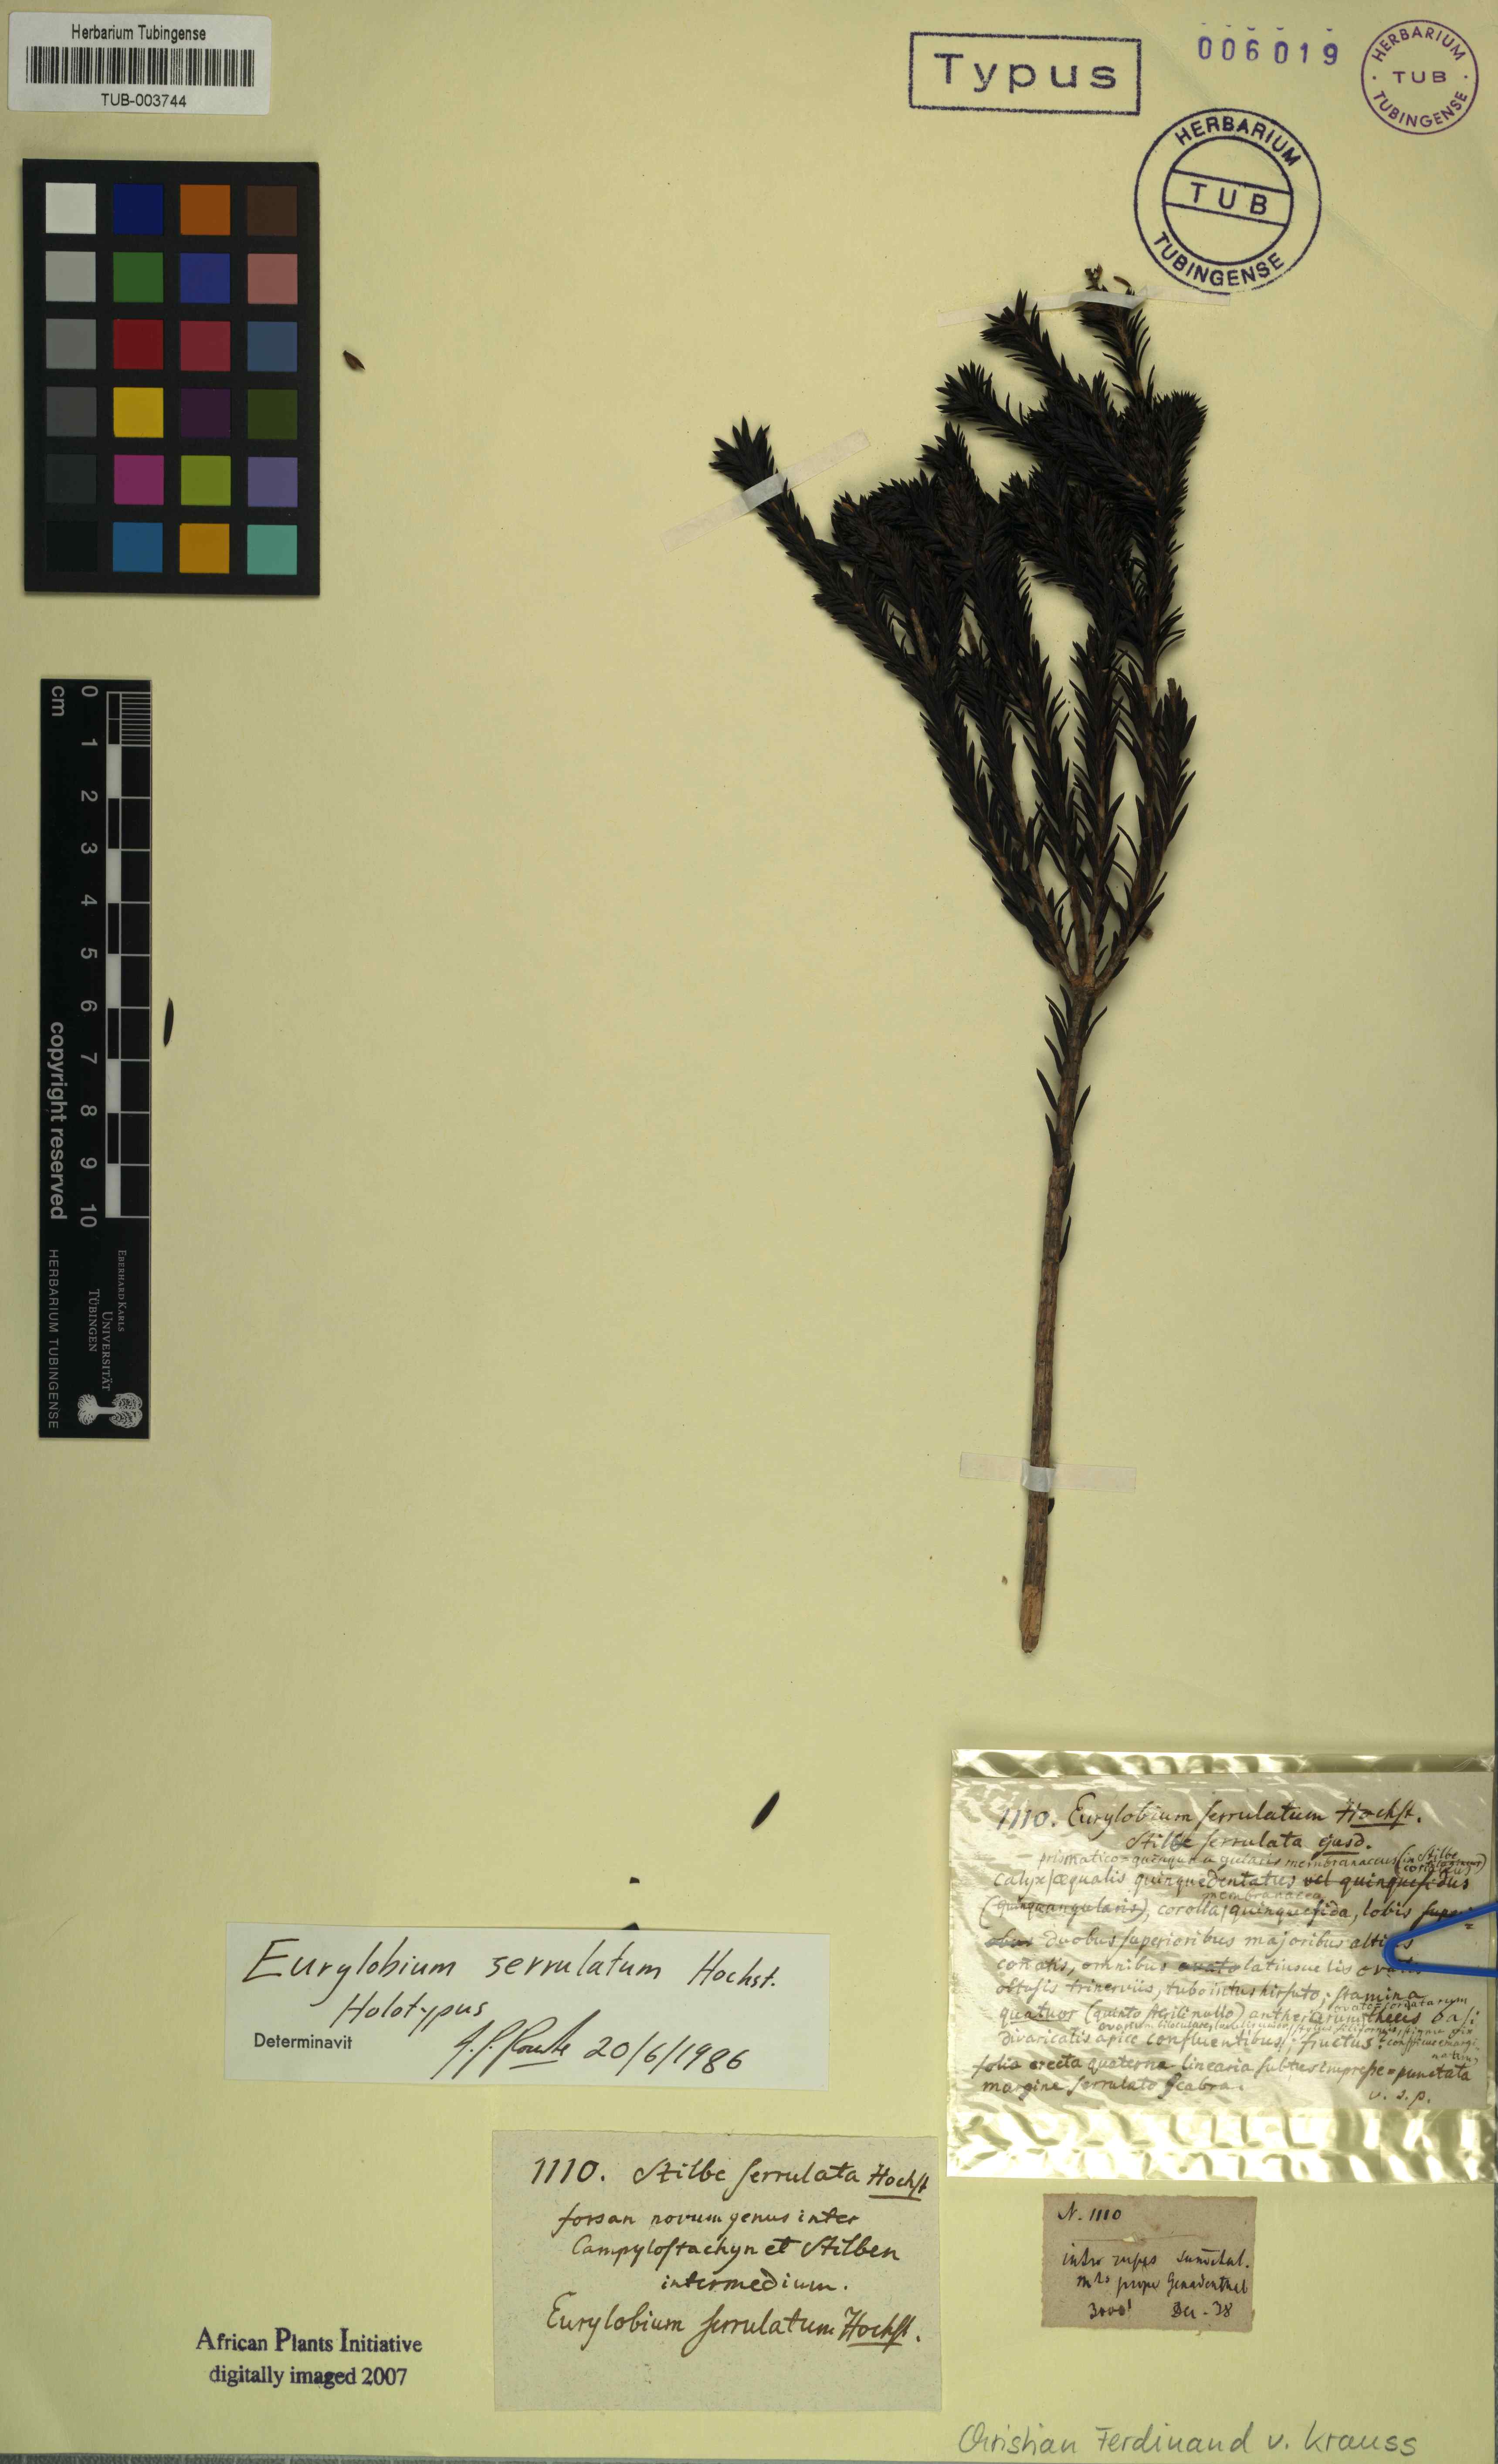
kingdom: Plantae
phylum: Tracheophyta
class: Magnoliopsida
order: Lamiales
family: Stilbaceae
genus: Stilbe
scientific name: Stilbe serrulata
